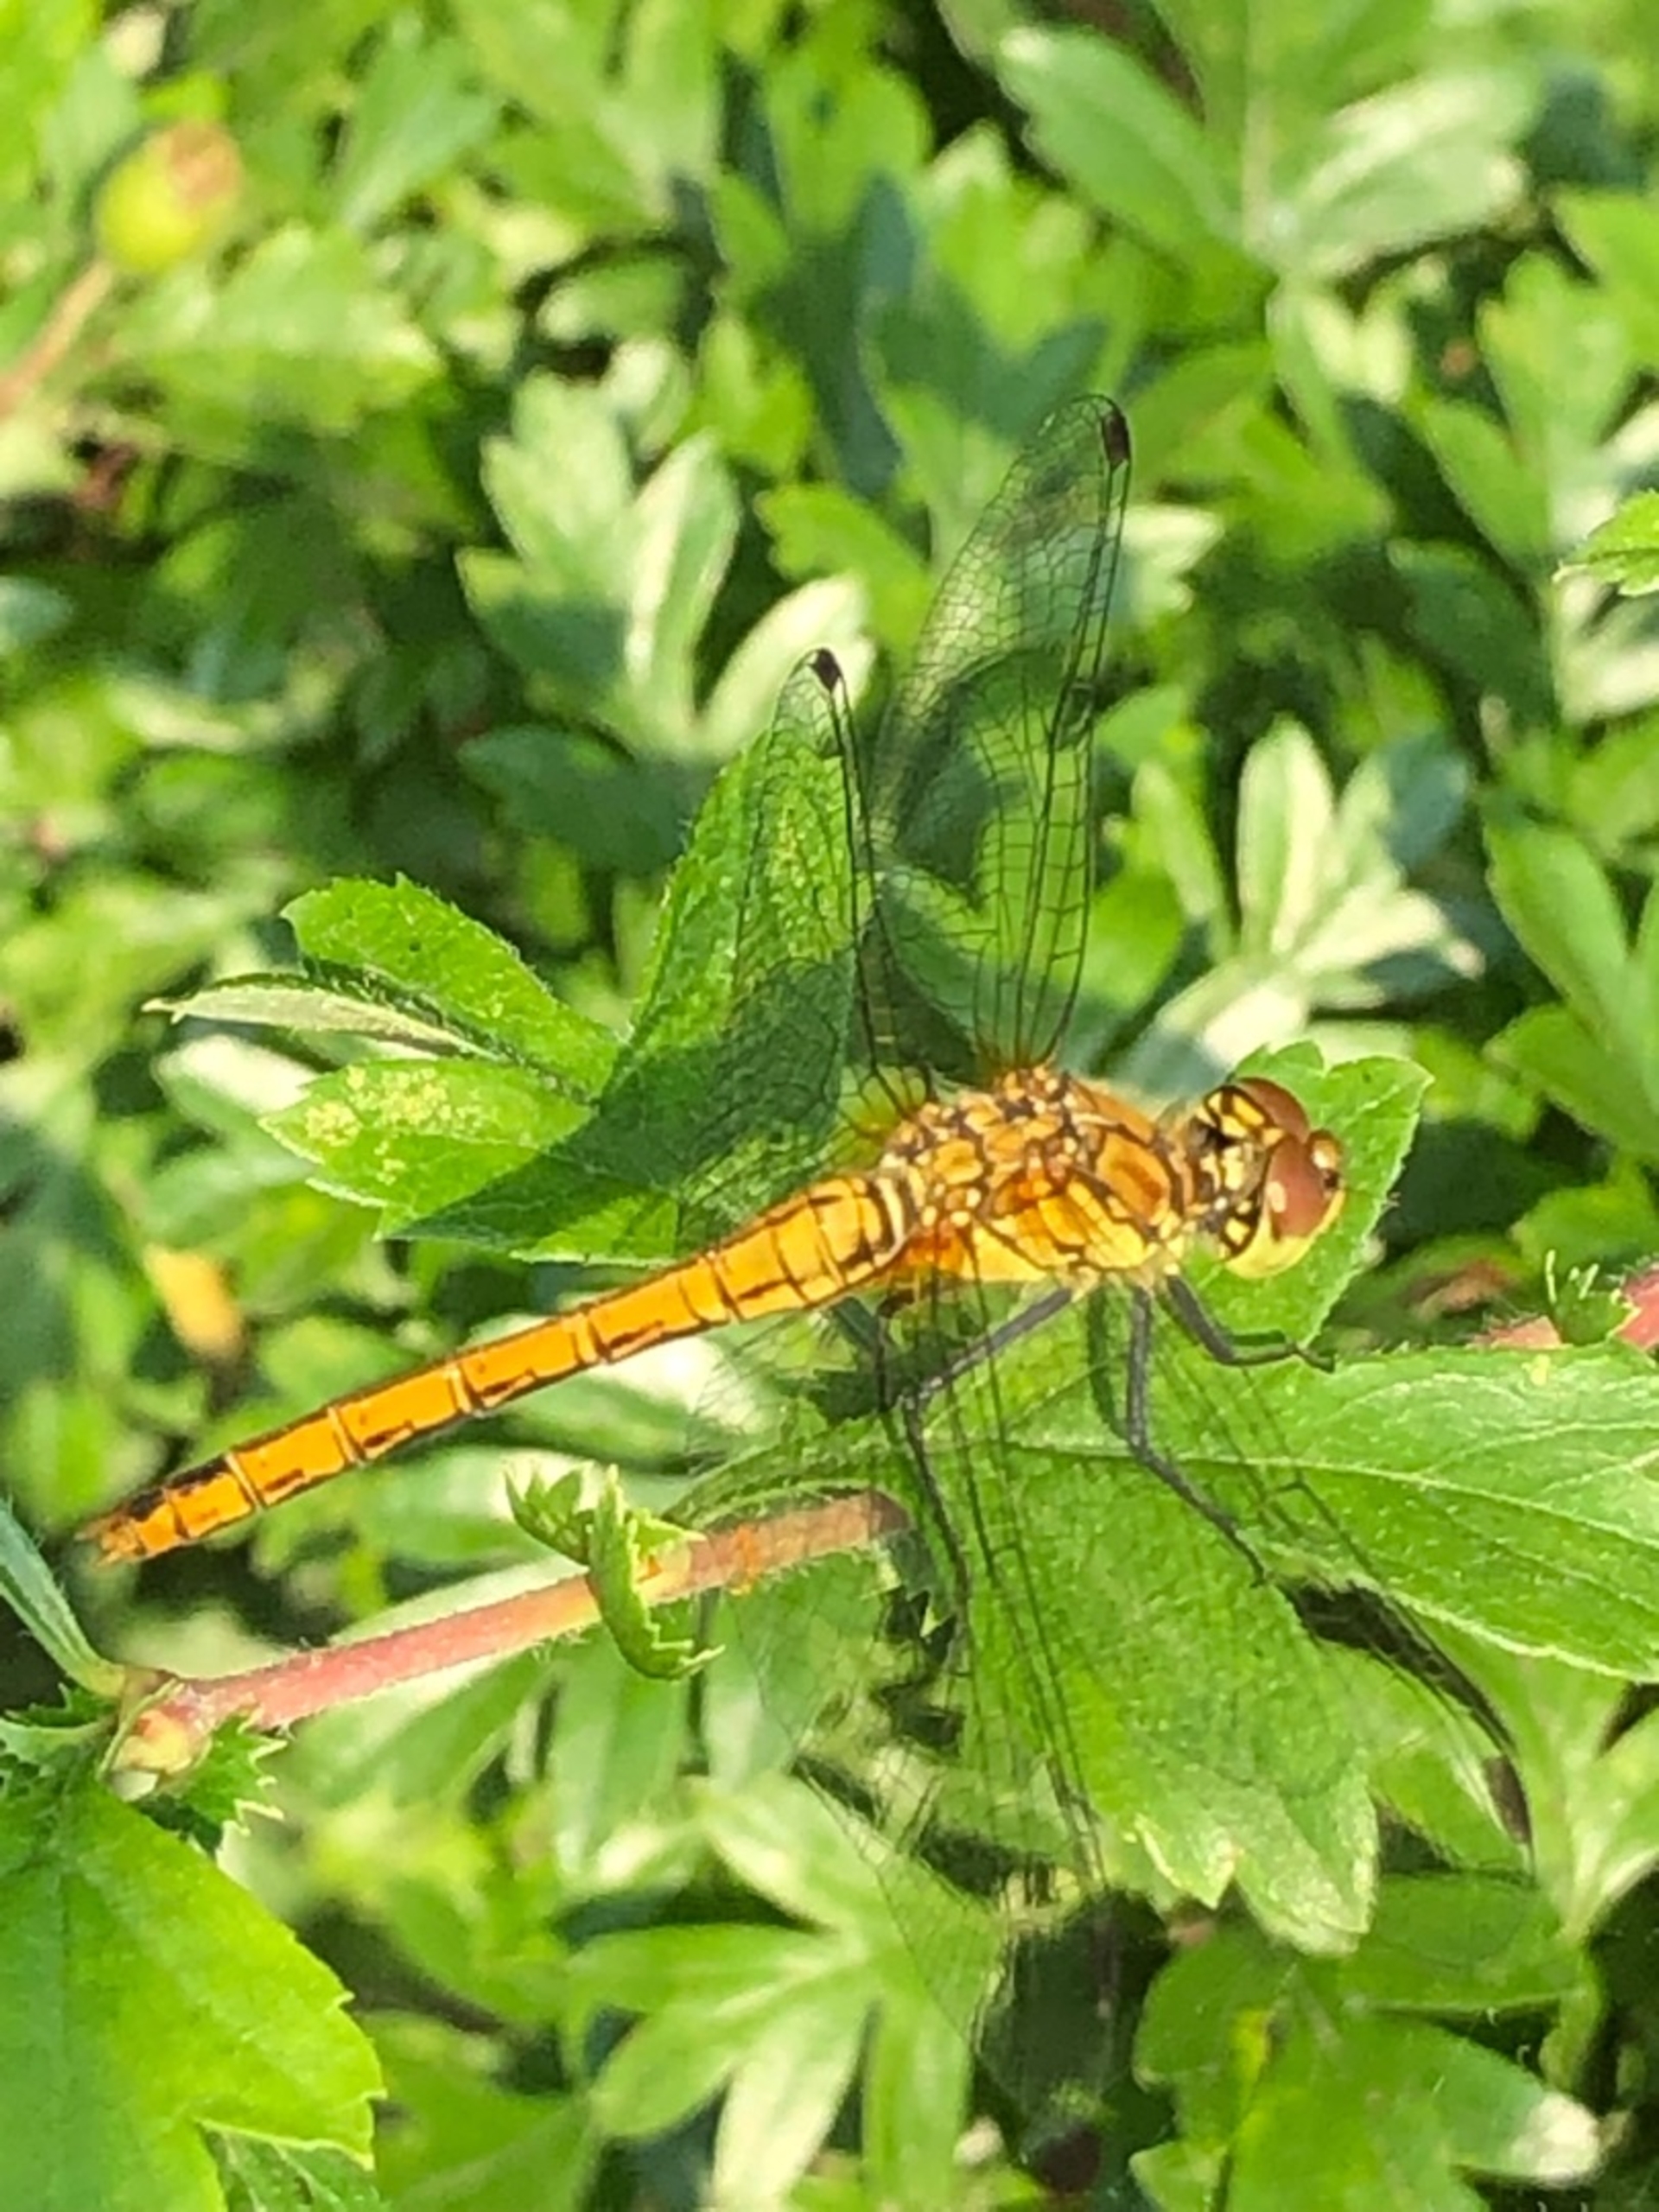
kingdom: Animalia
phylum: Arthropoda
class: Insecta
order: Odonata
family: Libellulidae
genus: Sympetrum
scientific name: Sympetrum sanguineum
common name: Blodrød hedelibel
